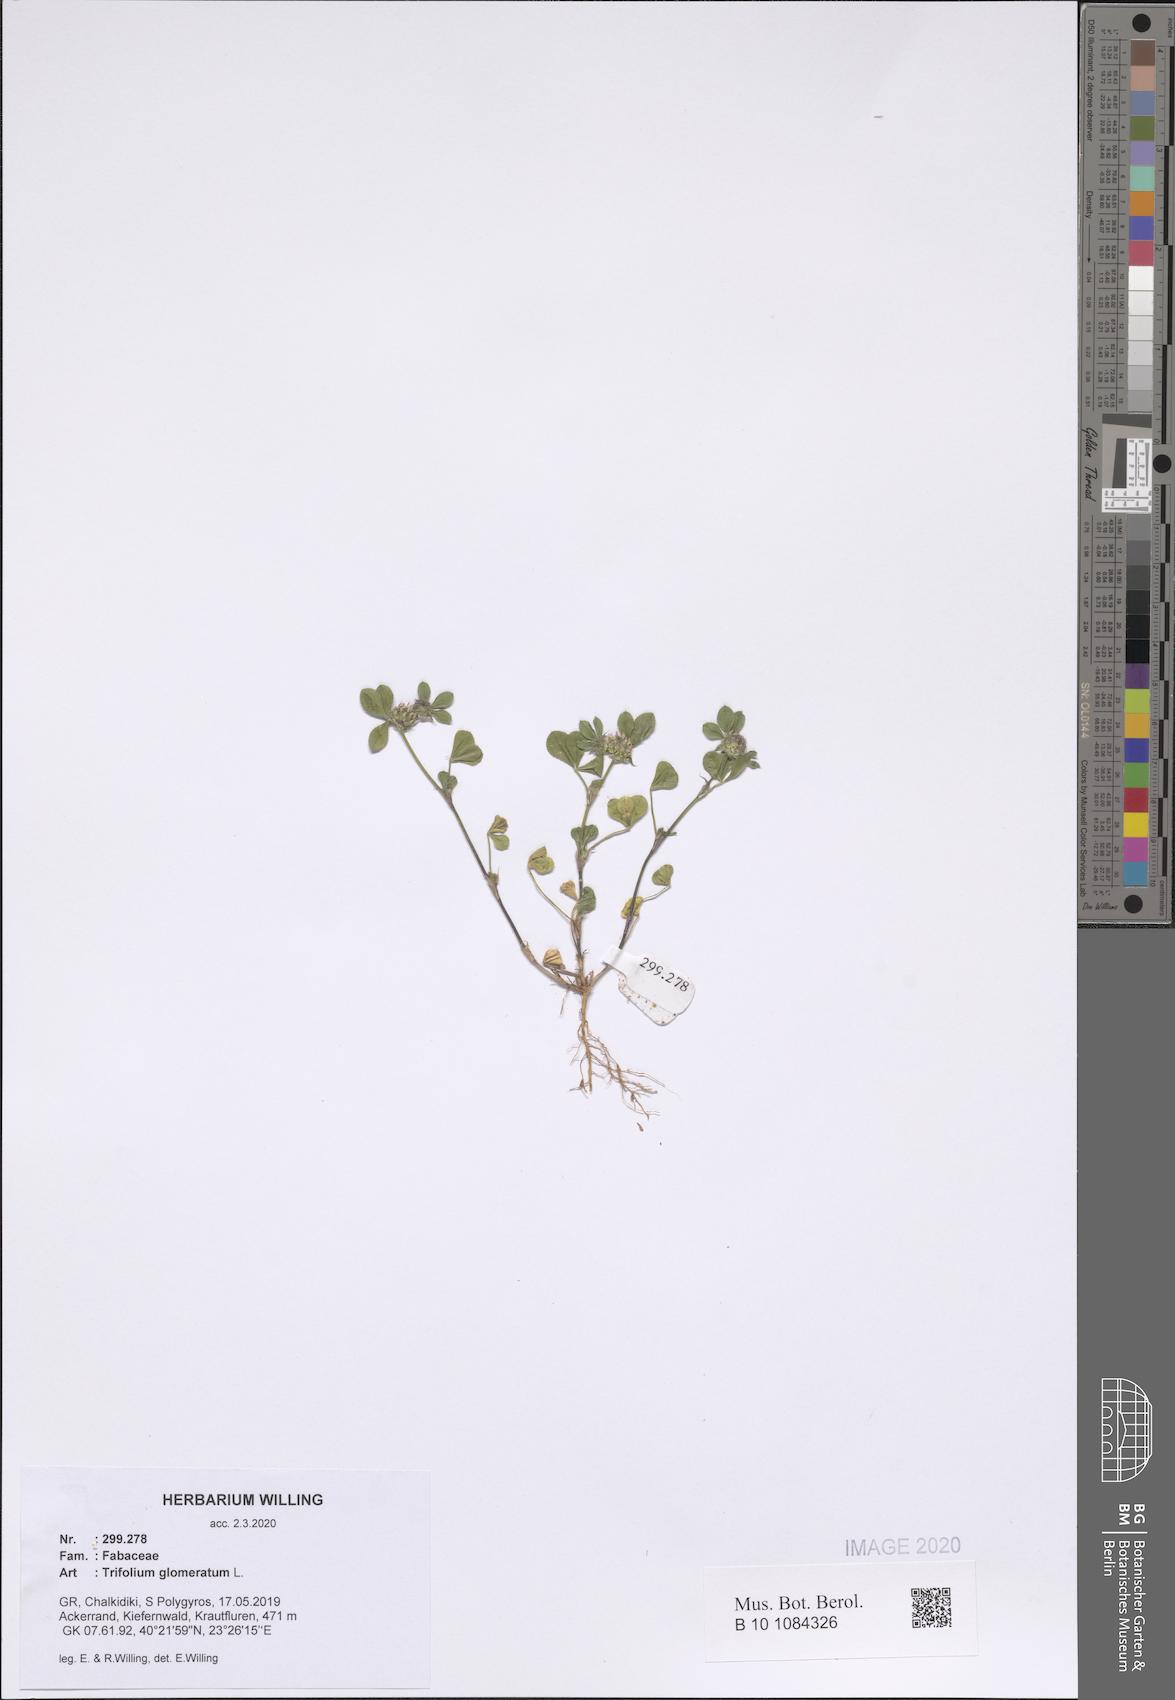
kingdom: Plantae
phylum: Tracheophyta
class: Magnoliopsida
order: Fabales
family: Fabaceae
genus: Trifolium
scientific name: Trifolium glomeratum
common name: Clustered clover
